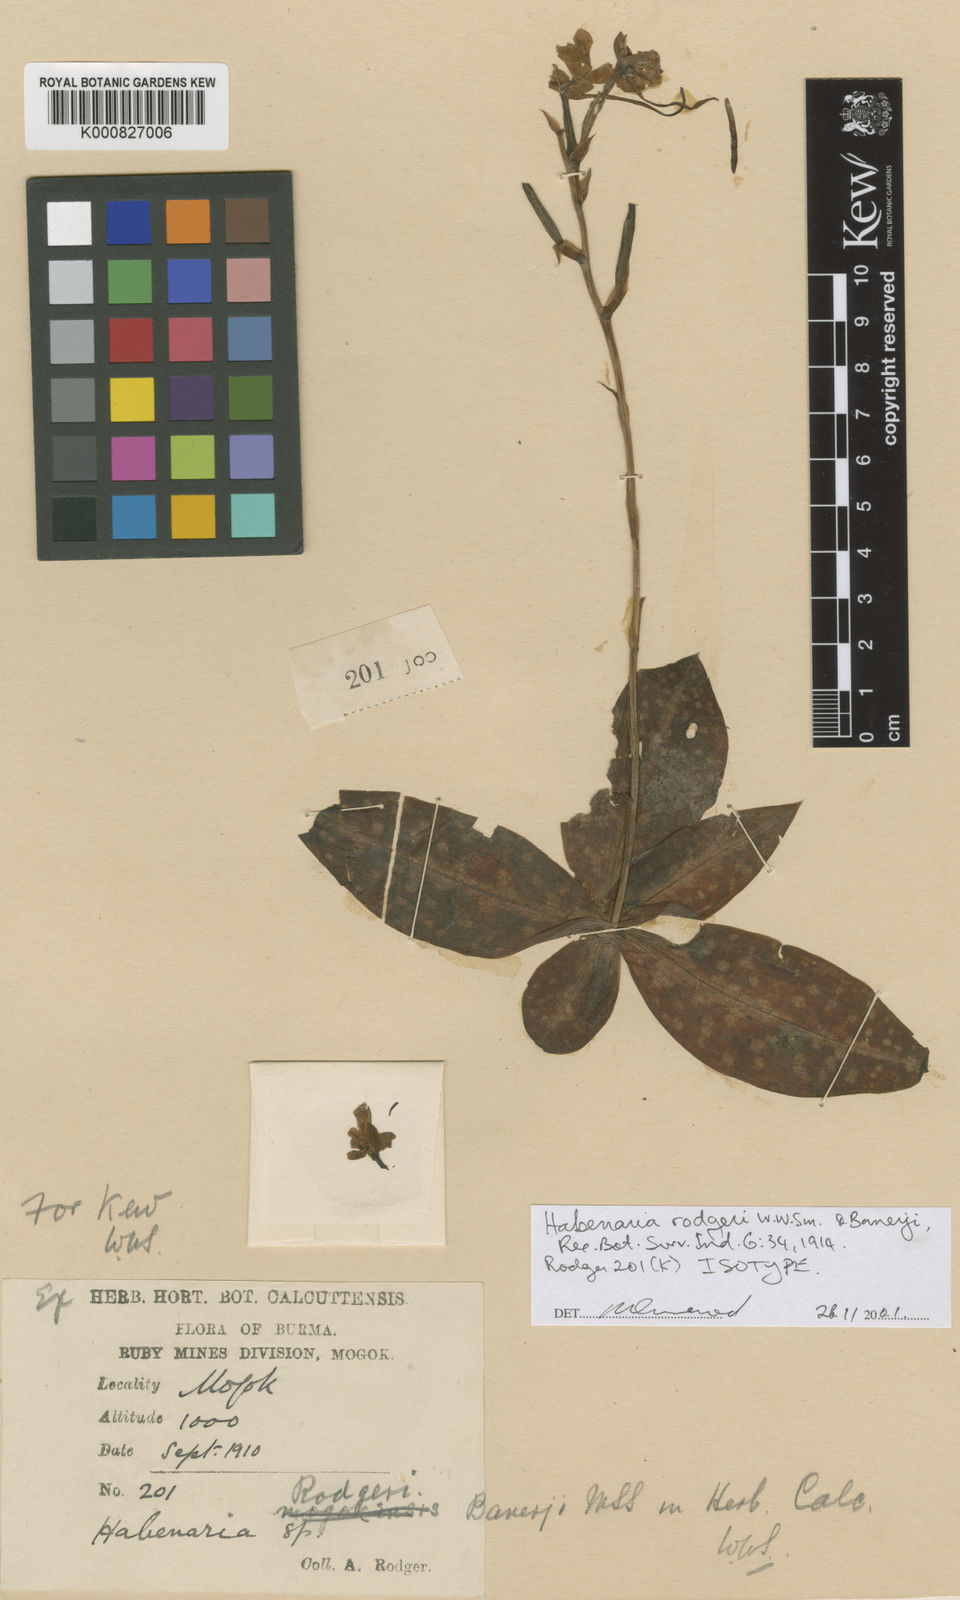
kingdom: Plantae
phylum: Tracheophyta
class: Liliopsida
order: Asparagales
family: Orchidaceae
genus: Habenaria
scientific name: Habenaria rhodocheila
